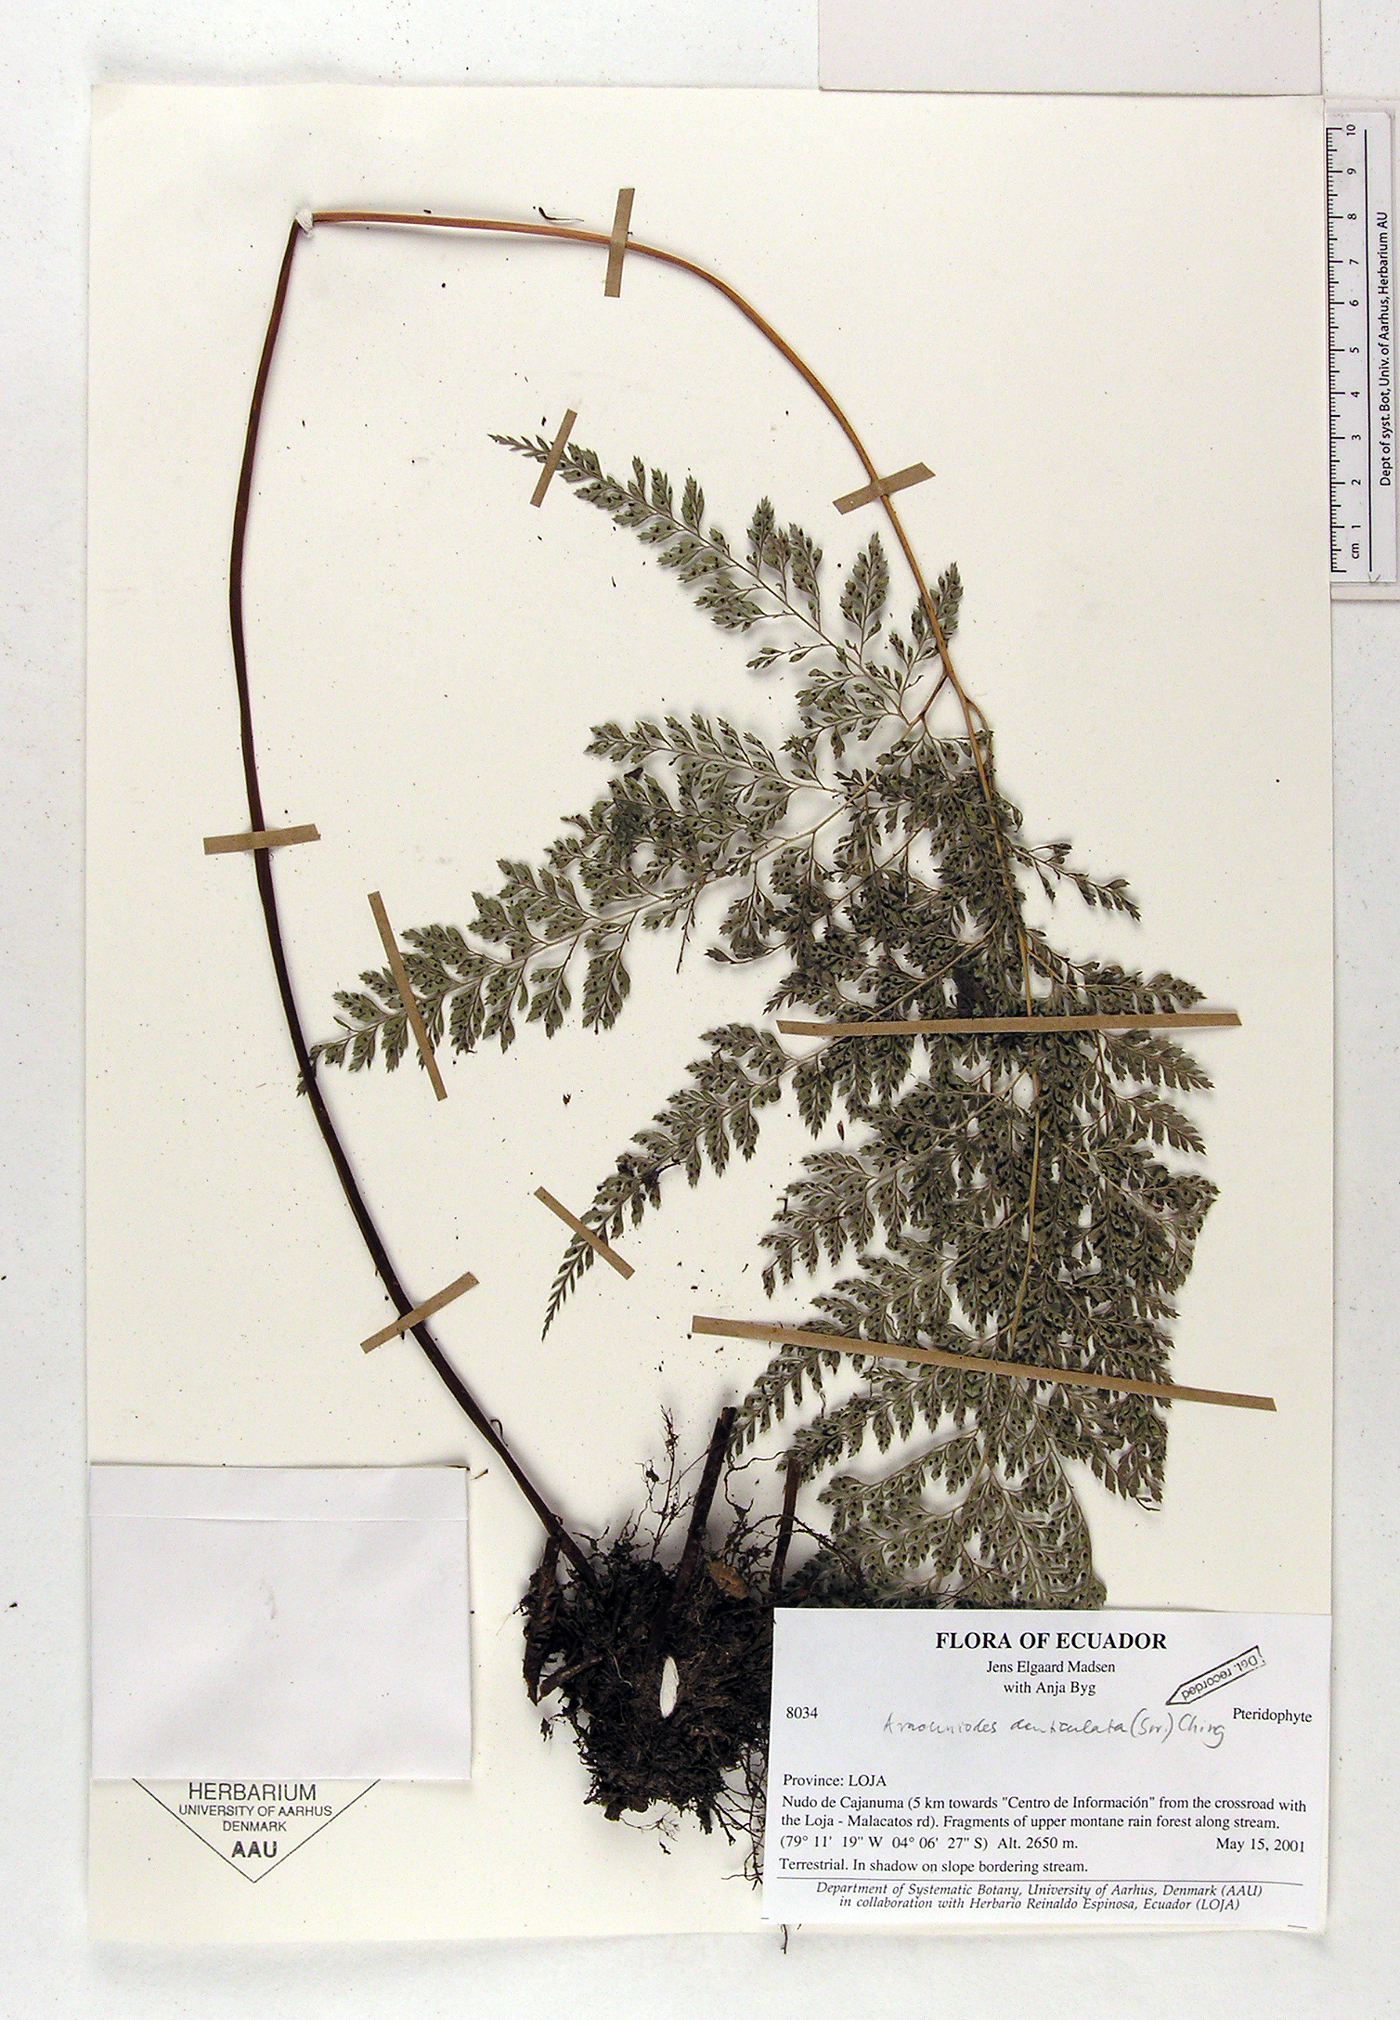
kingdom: Plantae
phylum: Tracheophyta
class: Polypodiopsida
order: Polypodiales
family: Dryopteridaceae
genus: Arachniodes
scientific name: Arachniodes denticulata
